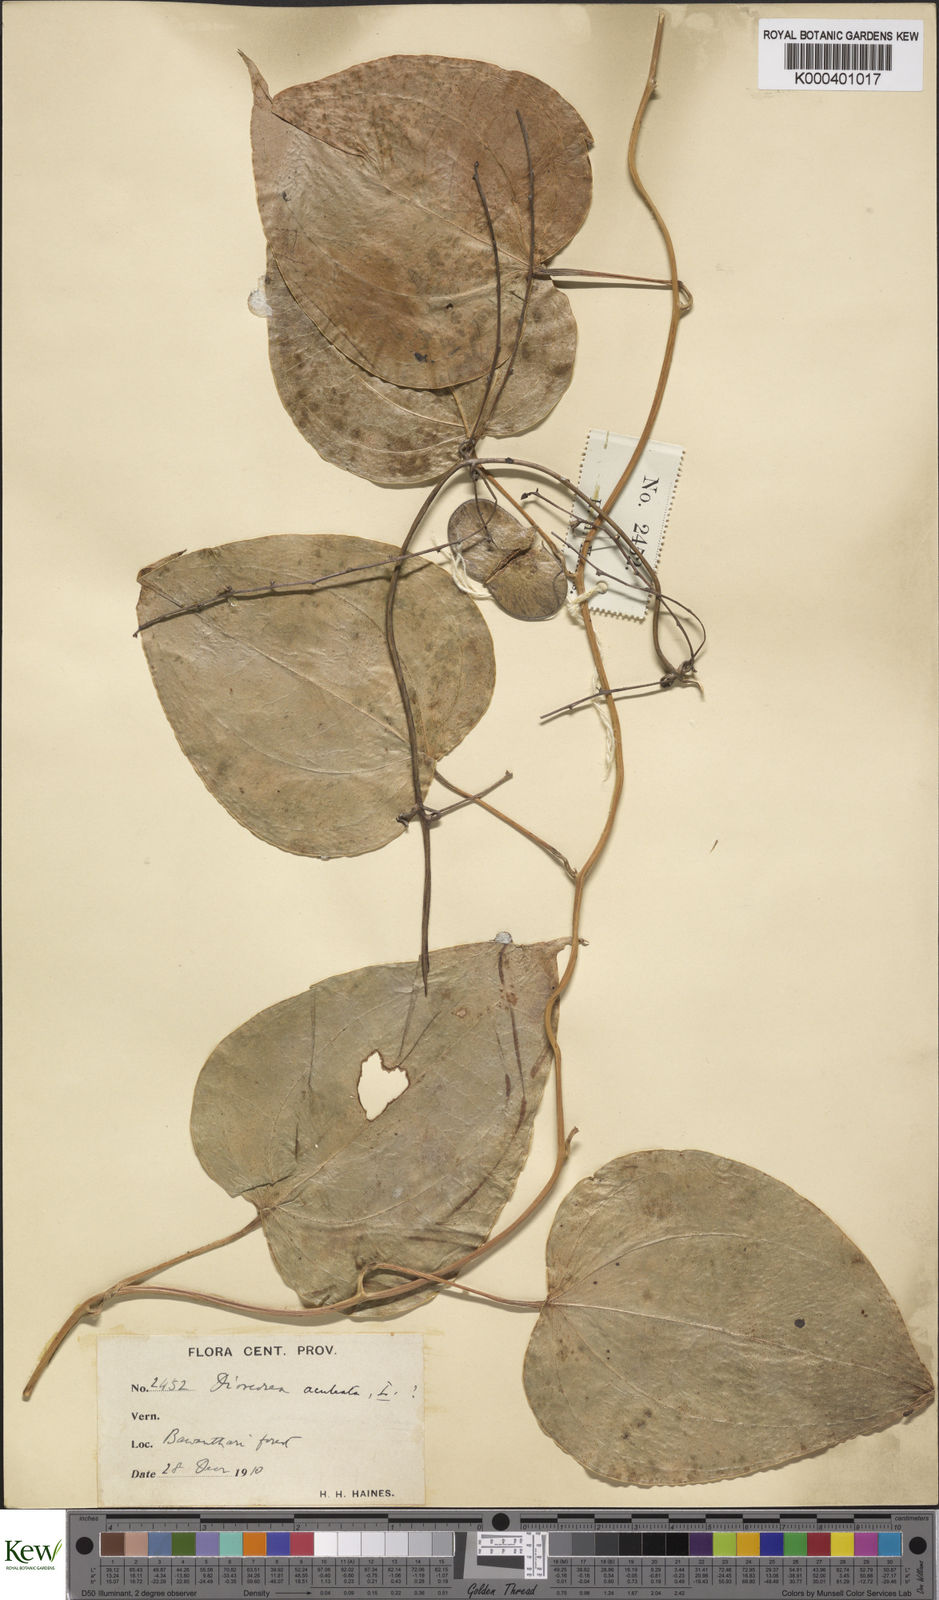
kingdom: Plantae
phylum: Tracheophyta
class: Liliopsida
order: Dioscoreales
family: Dioscoreaceae
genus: Dioscorea
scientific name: Dioscorea wallichii
